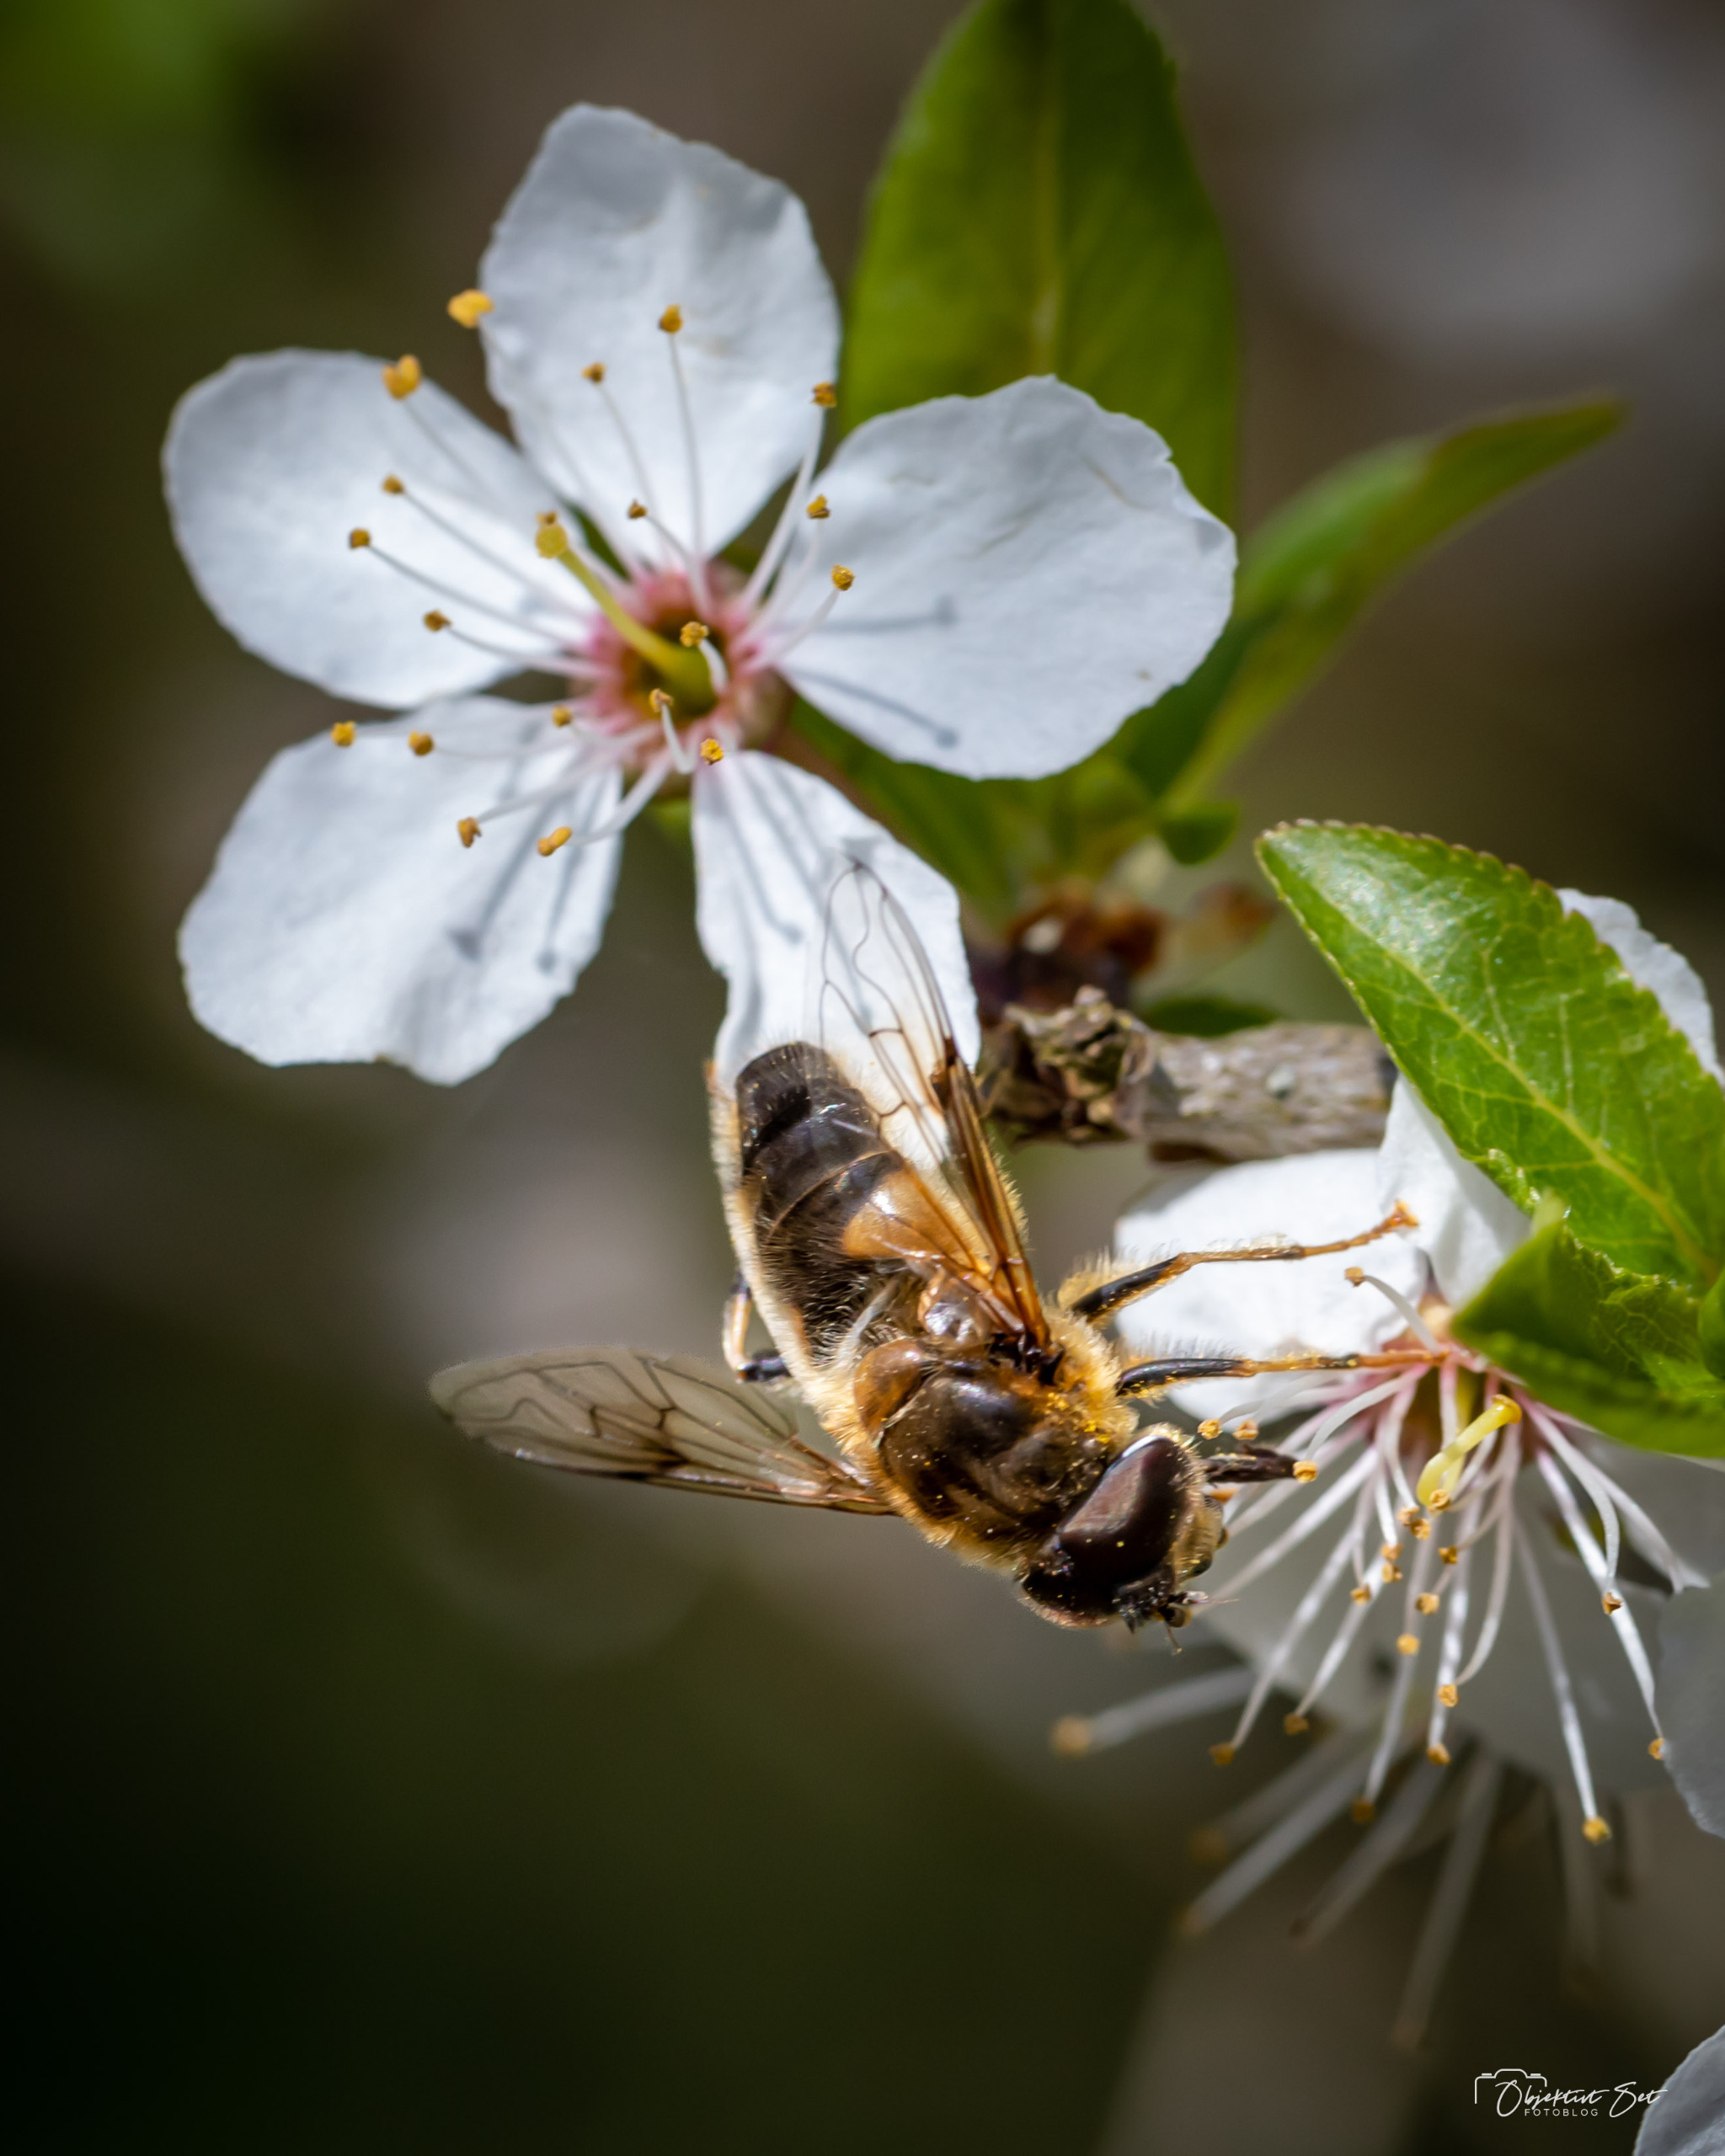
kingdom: Animalia
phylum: Arthropoda
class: Insecta
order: Diptera
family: Syrphidae
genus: Eristalis
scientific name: Eristalis pertinax
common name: Gulfodet dyndflue
